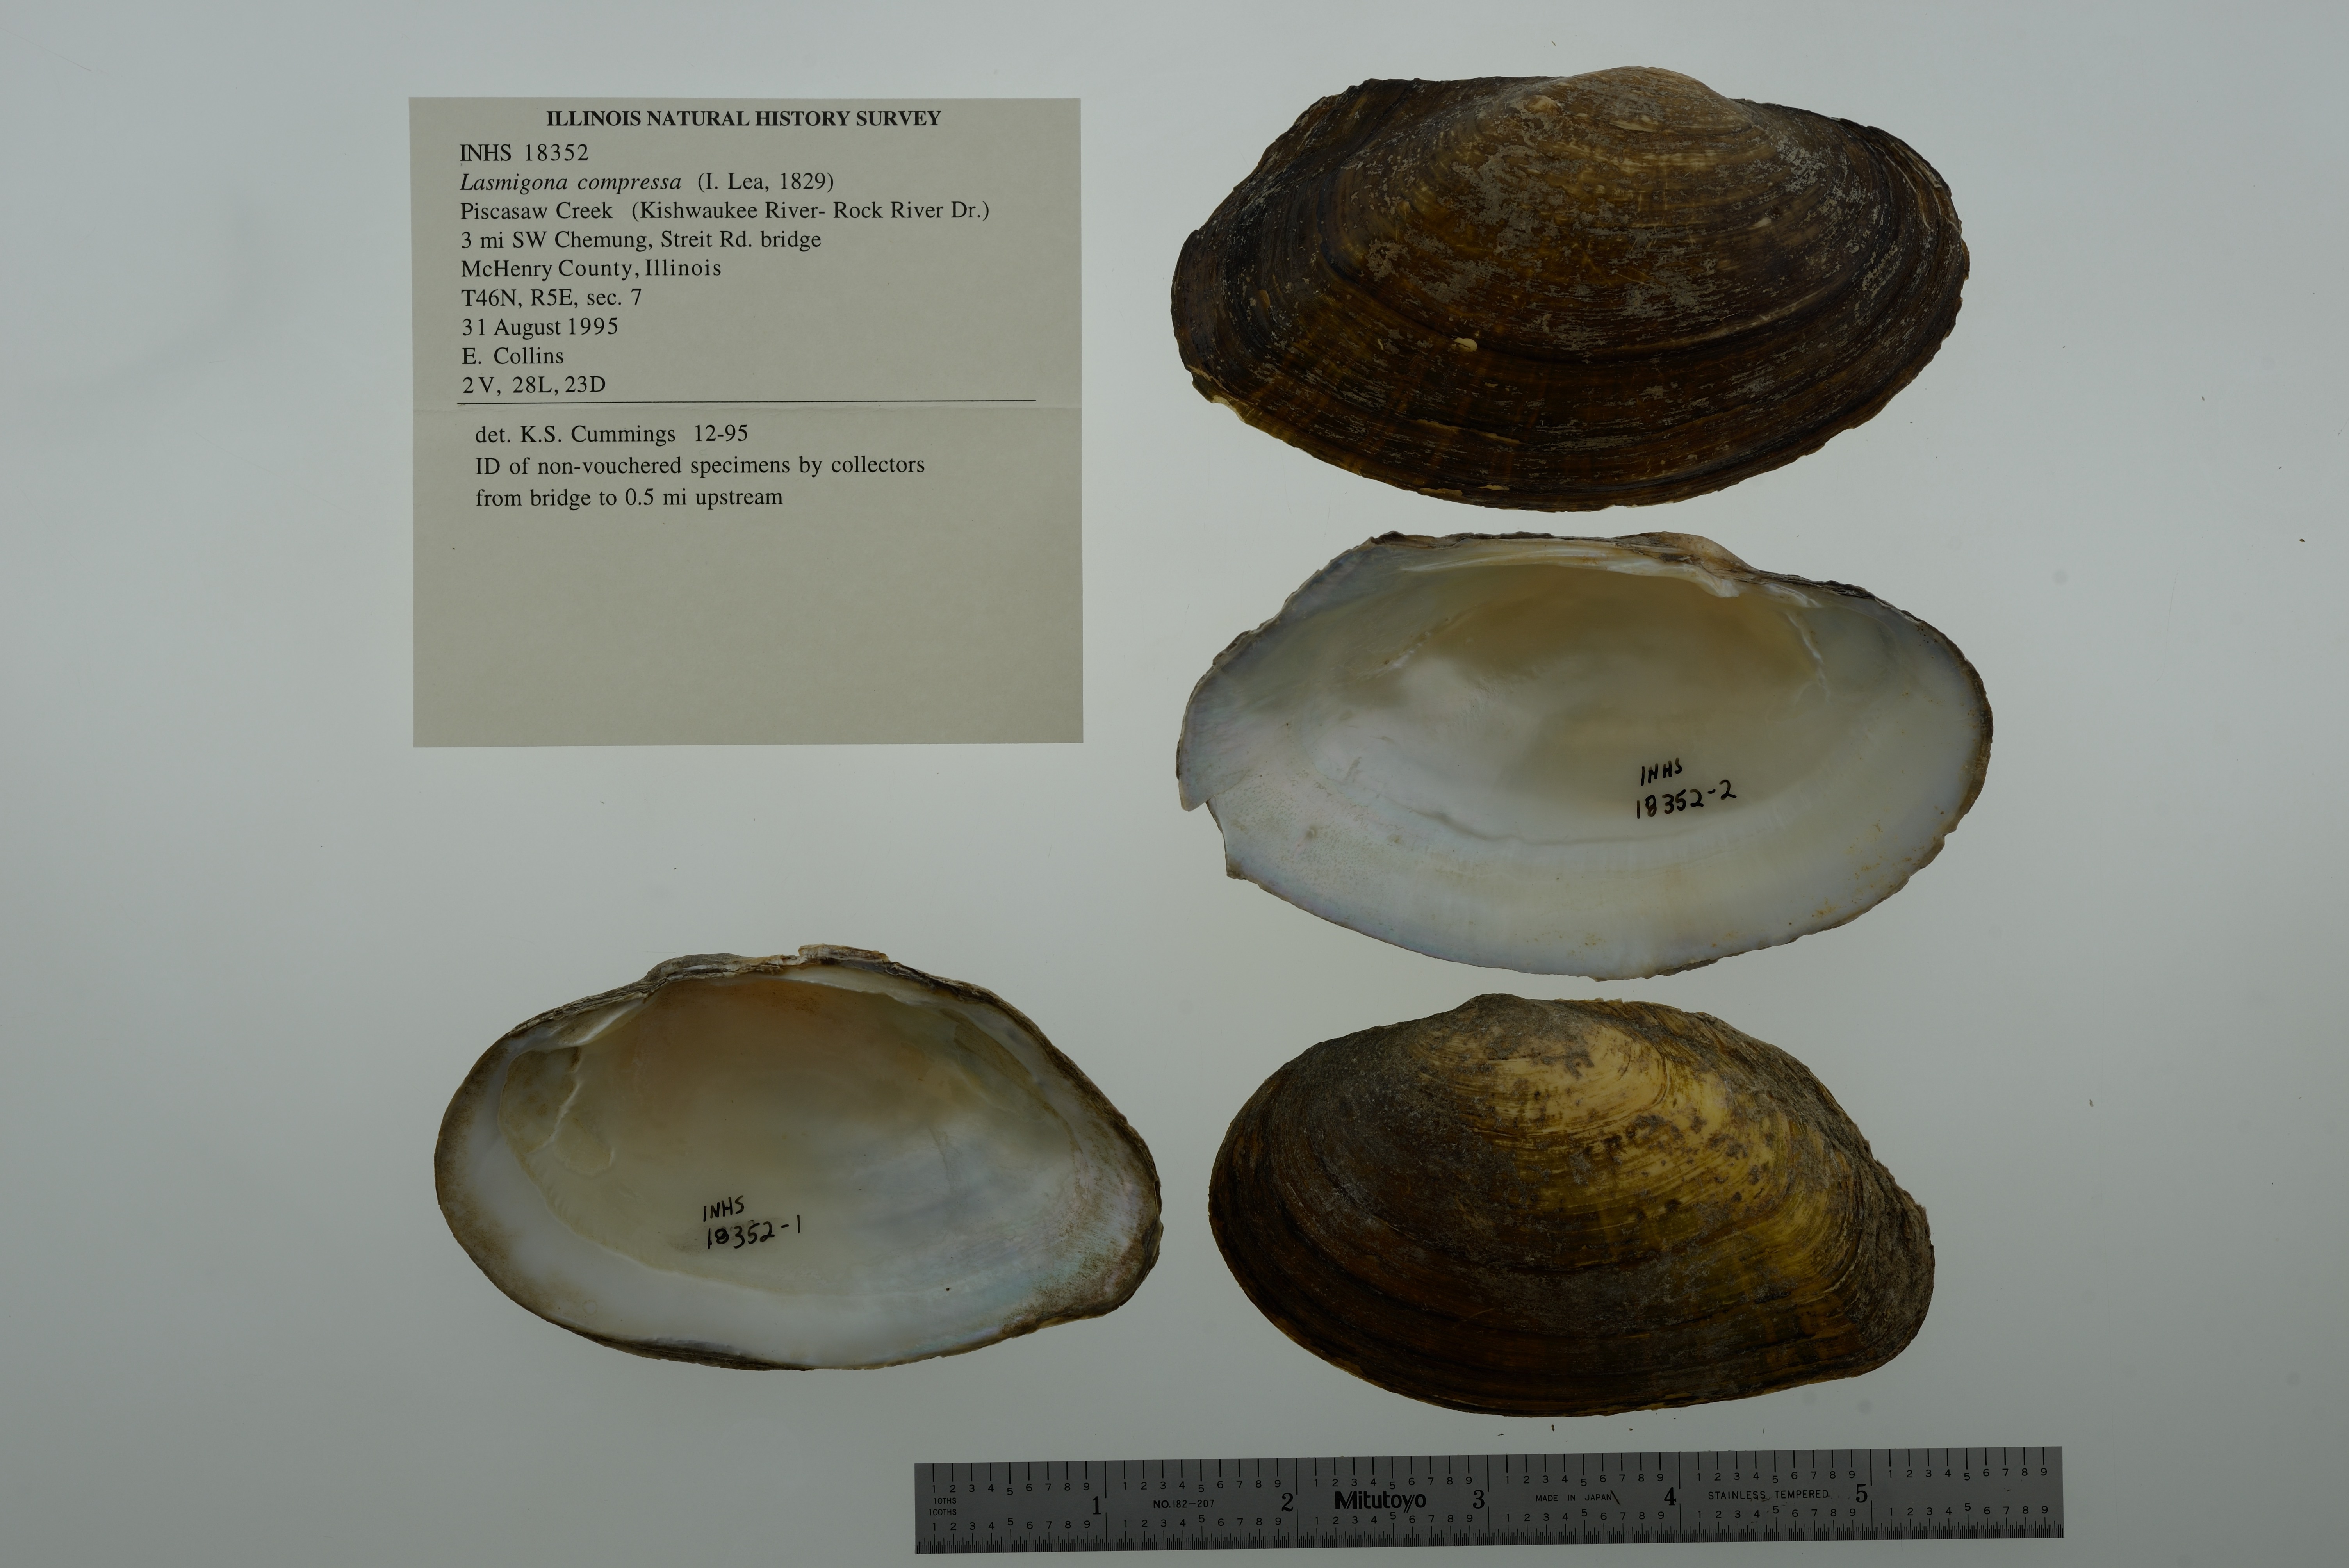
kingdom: Animalia
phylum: Mollusca
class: Bivalvia
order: Unionida
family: Unionidae
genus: Lasmigona
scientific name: Lasmigona compressa
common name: Creek heelsplitter
